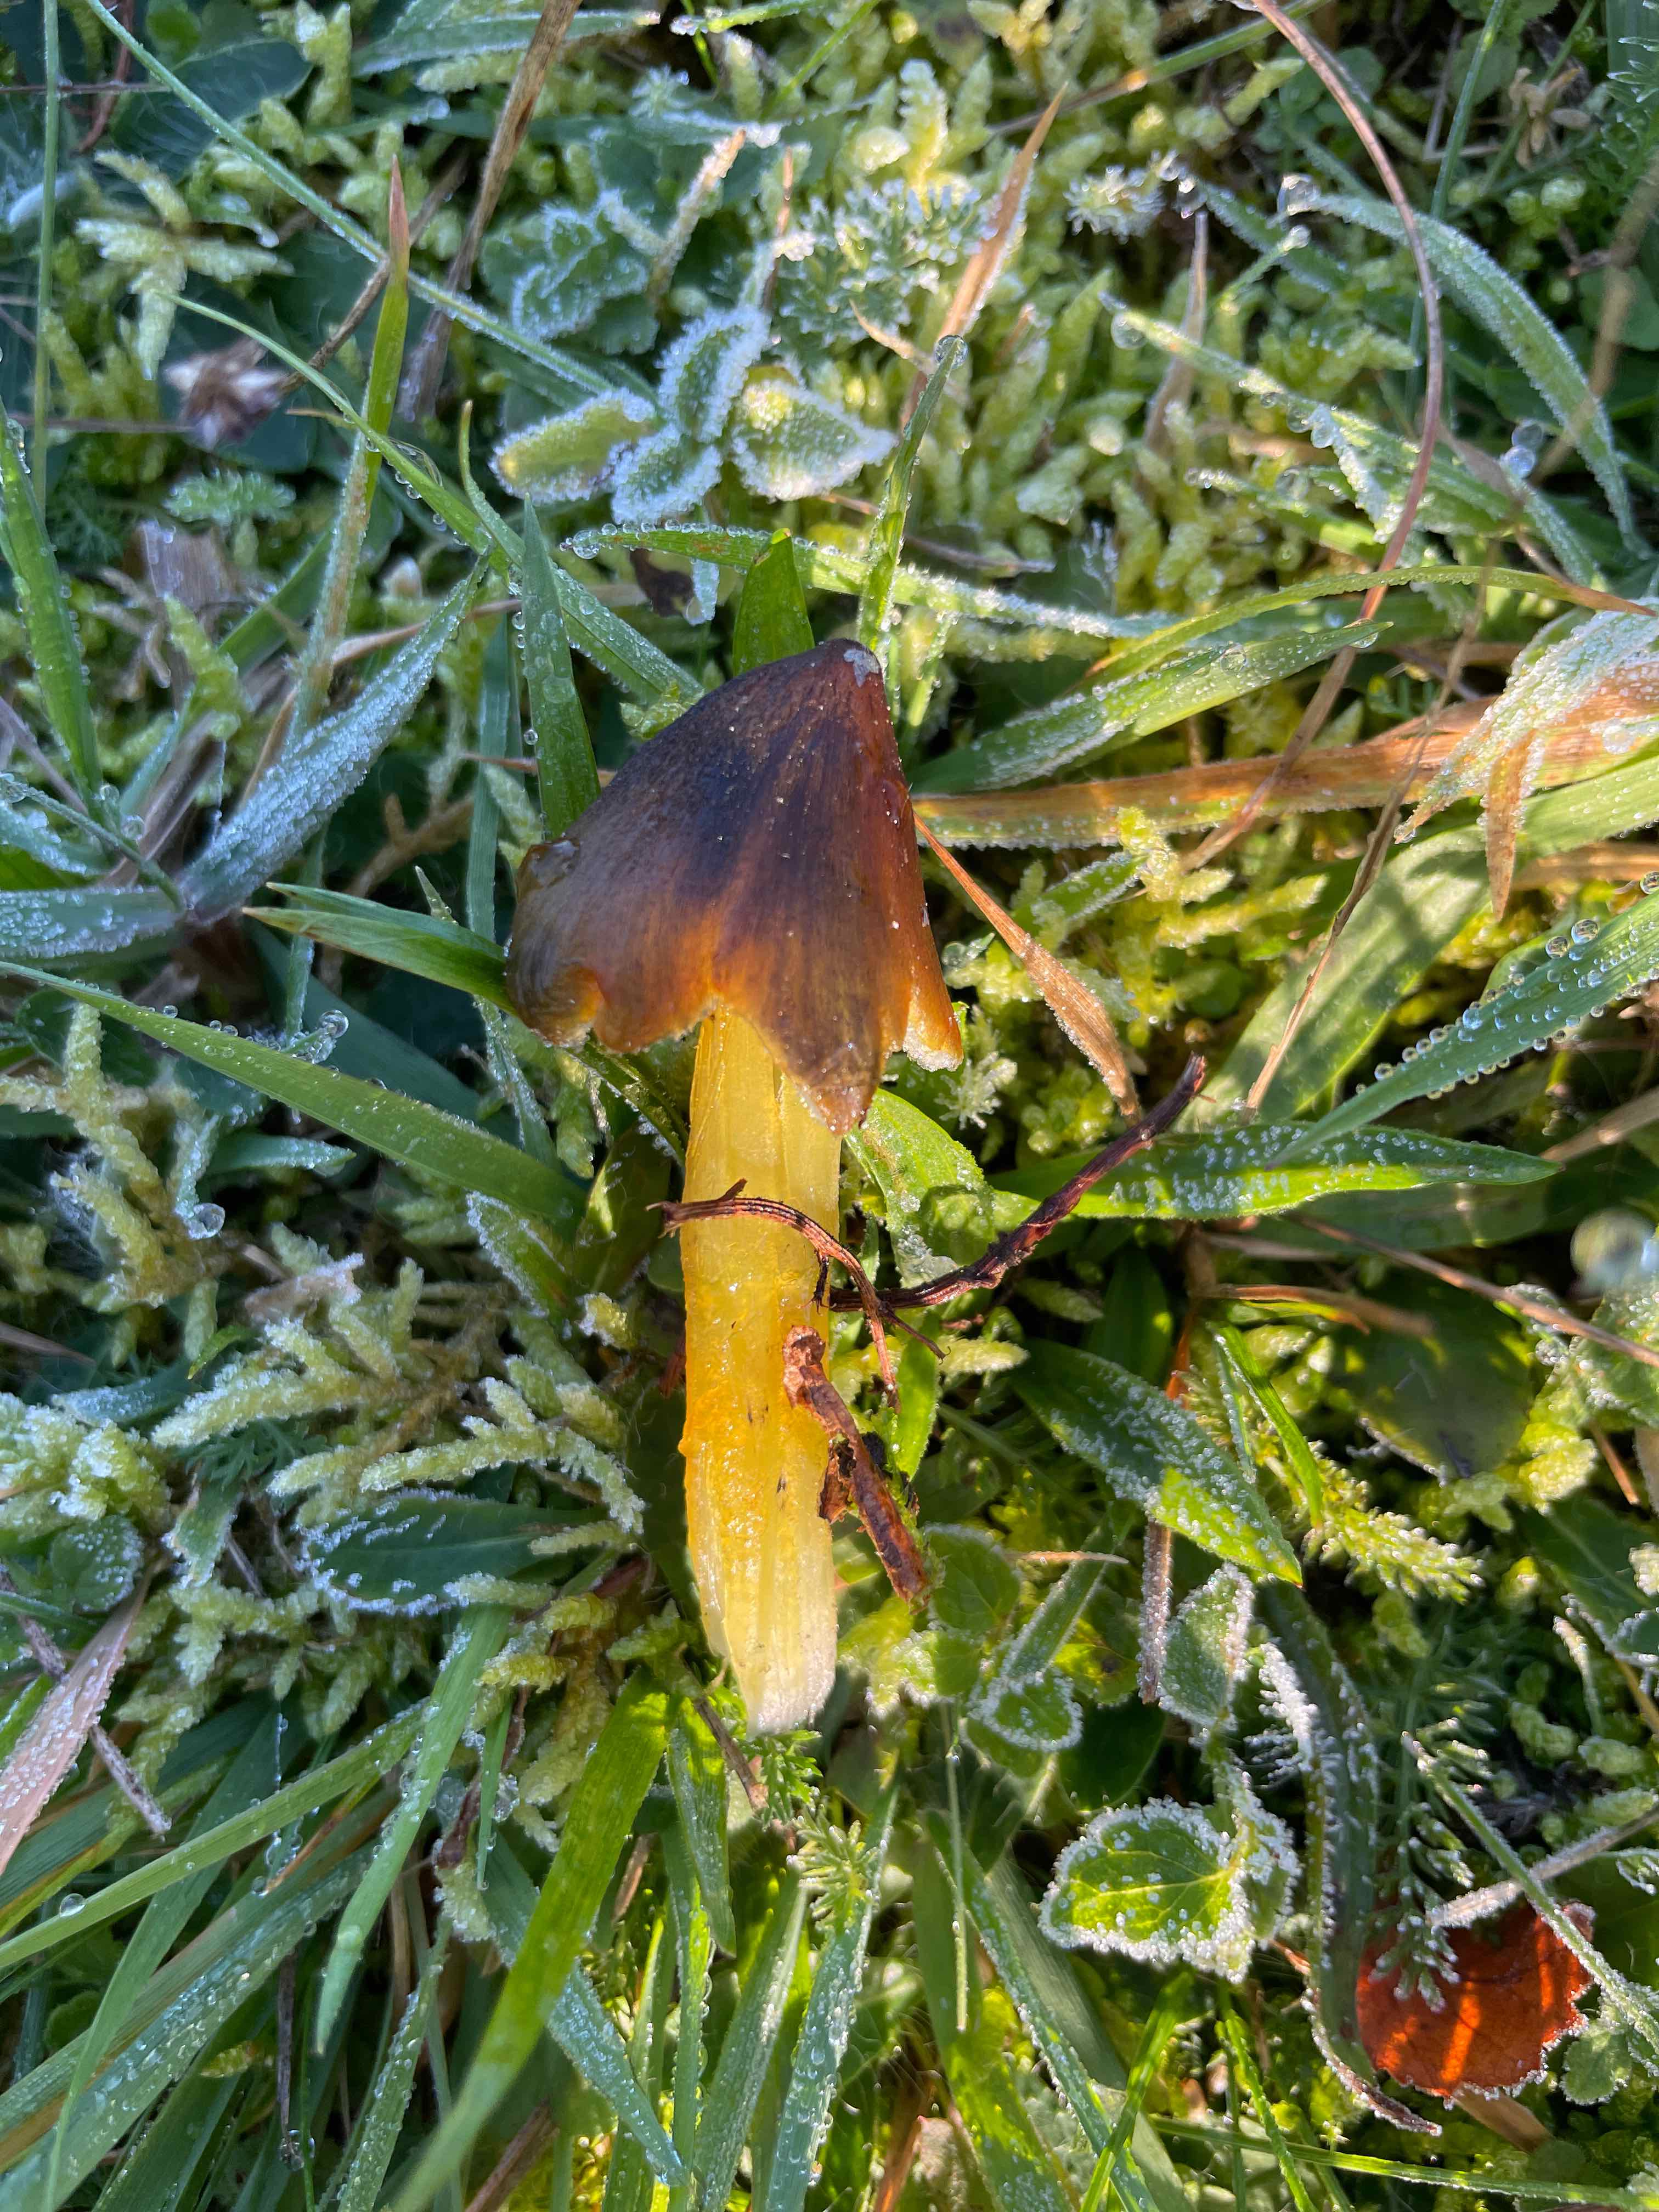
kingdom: Fungi
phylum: Basidiomycota
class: Agaricomycetes
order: Agaricales
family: Hygrophoraceae
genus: Hygrocybe
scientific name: Hygrocybe conica
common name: kegle-vokshat
